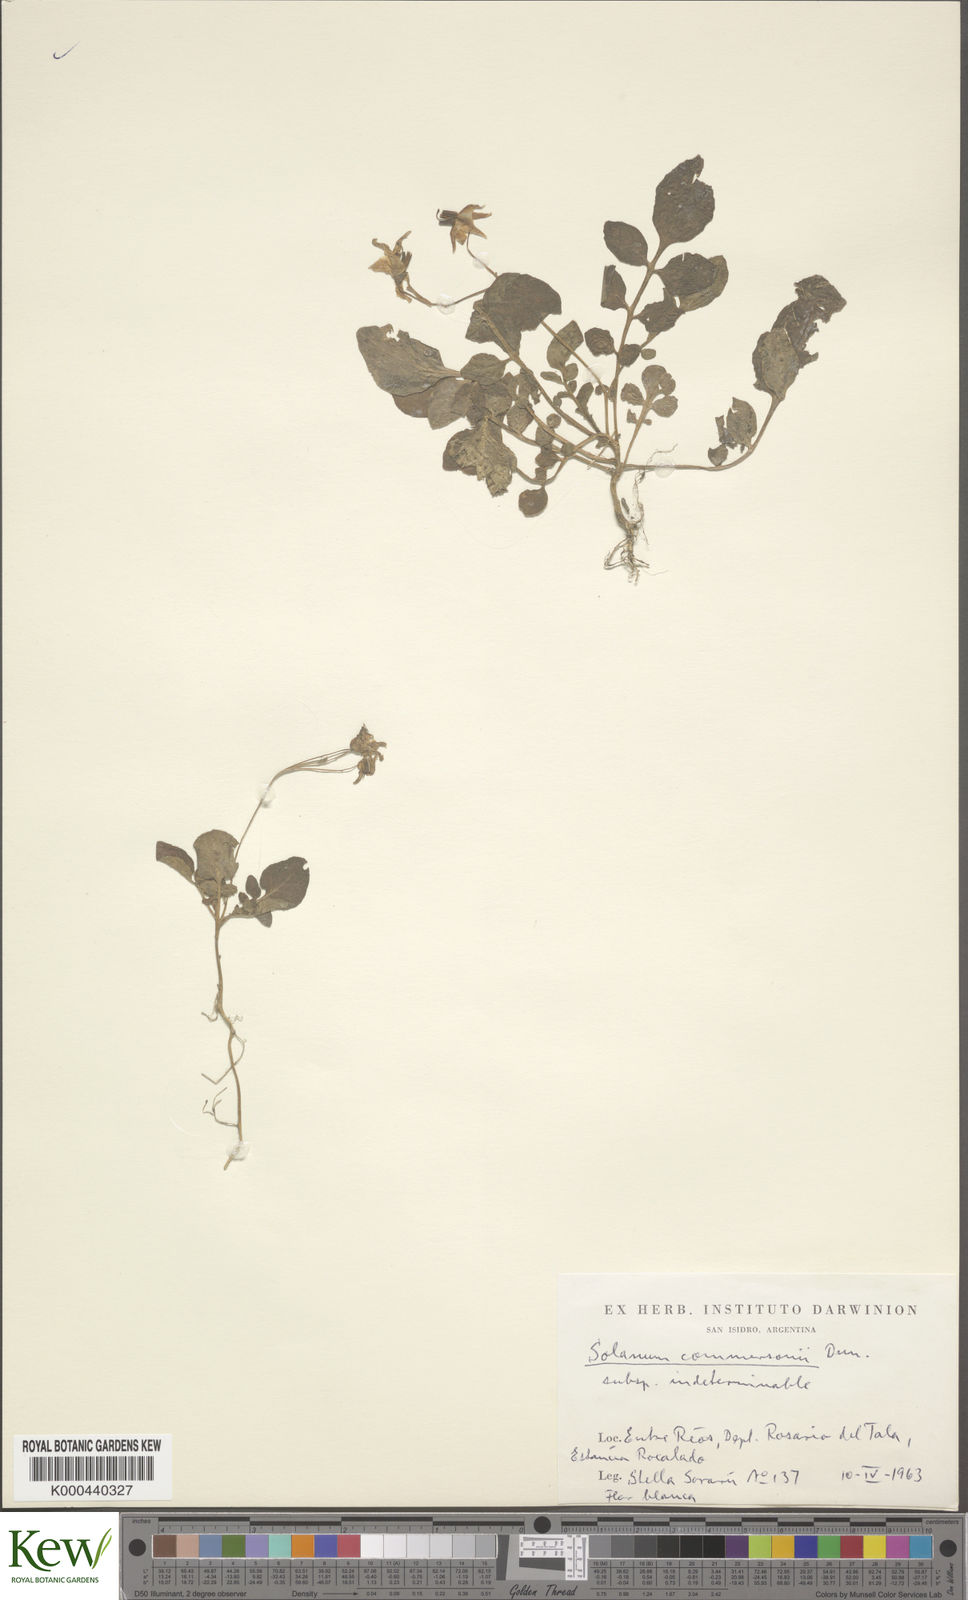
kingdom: Plantae
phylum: Tracheophyta
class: Magnoliopsida
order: Solanales
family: Solanaceae
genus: Solanum
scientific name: Solanum commersonii
